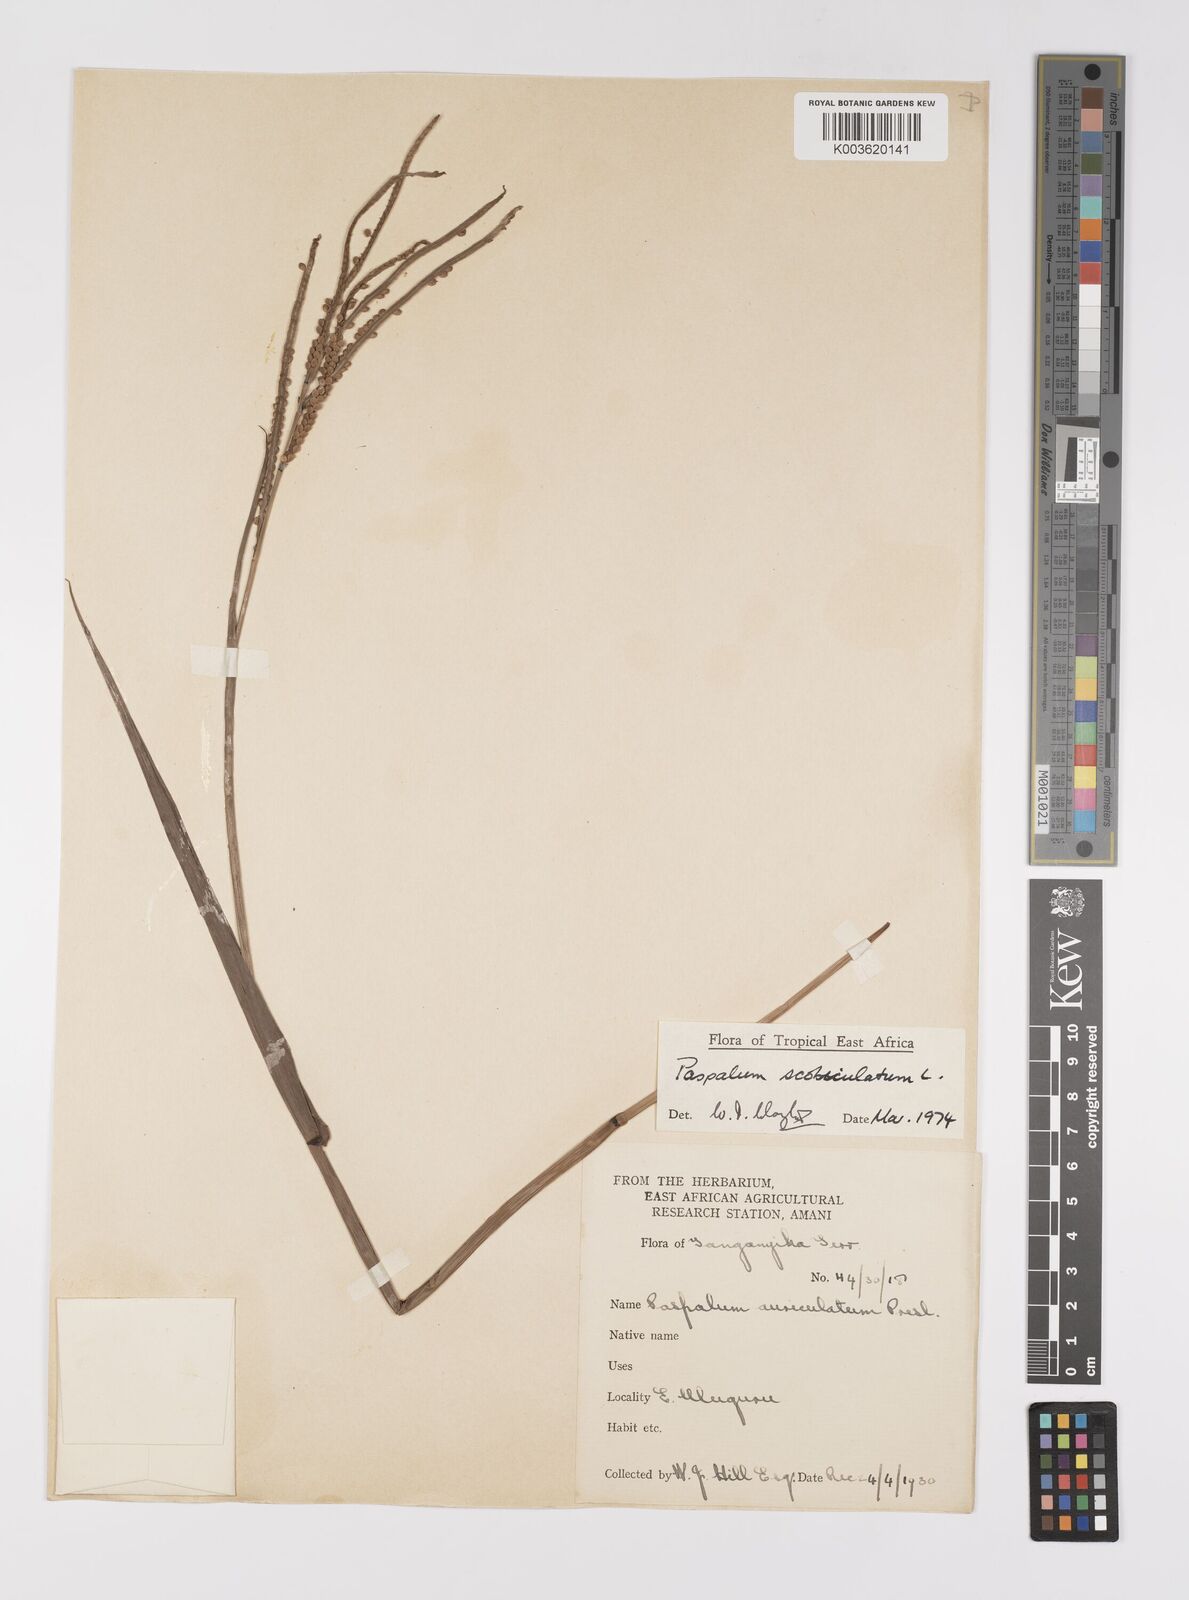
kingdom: Plantae
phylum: Tracheophyta
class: Liliopsida
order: Poales
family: Poaceae
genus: Paspalum
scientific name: Paspalum scrobiculatum
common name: Kodo millet
